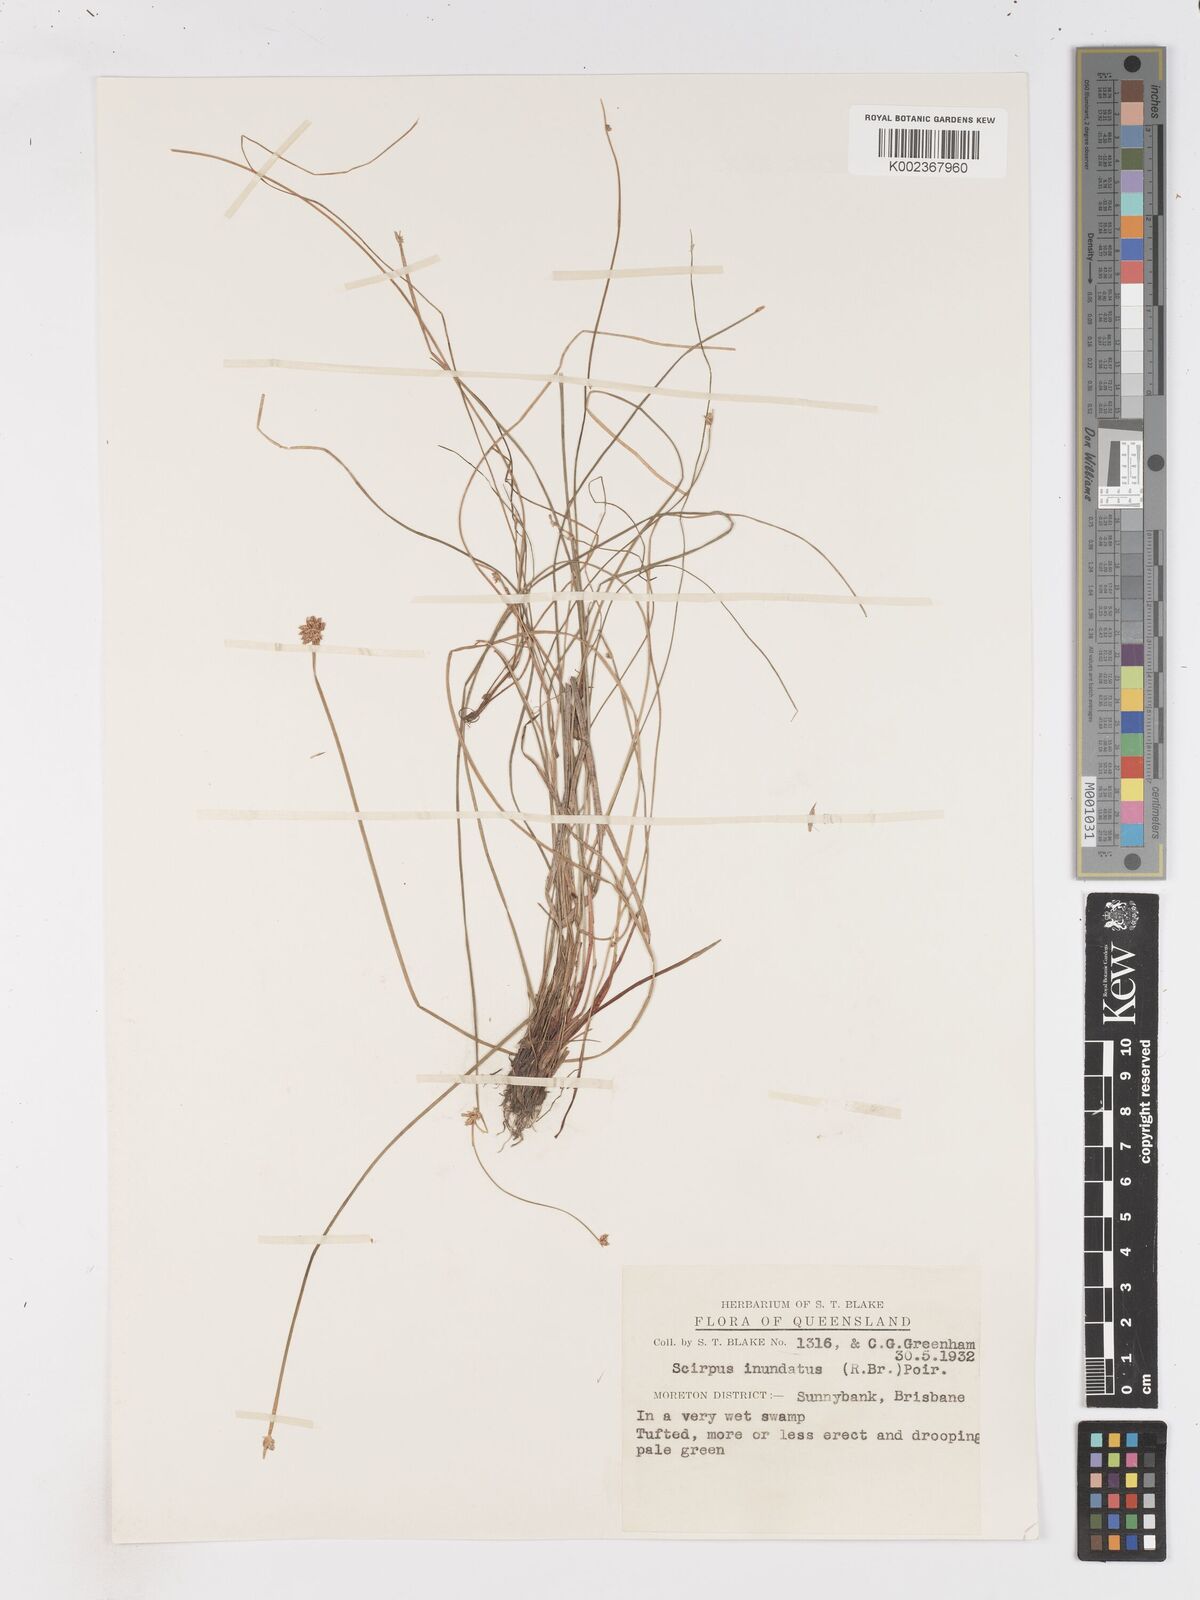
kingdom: Plantae
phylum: Tracheophyta
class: Liliopsida
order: Poales
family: Cyperaceae
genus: Isolepis
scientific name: Isolepis inundata
